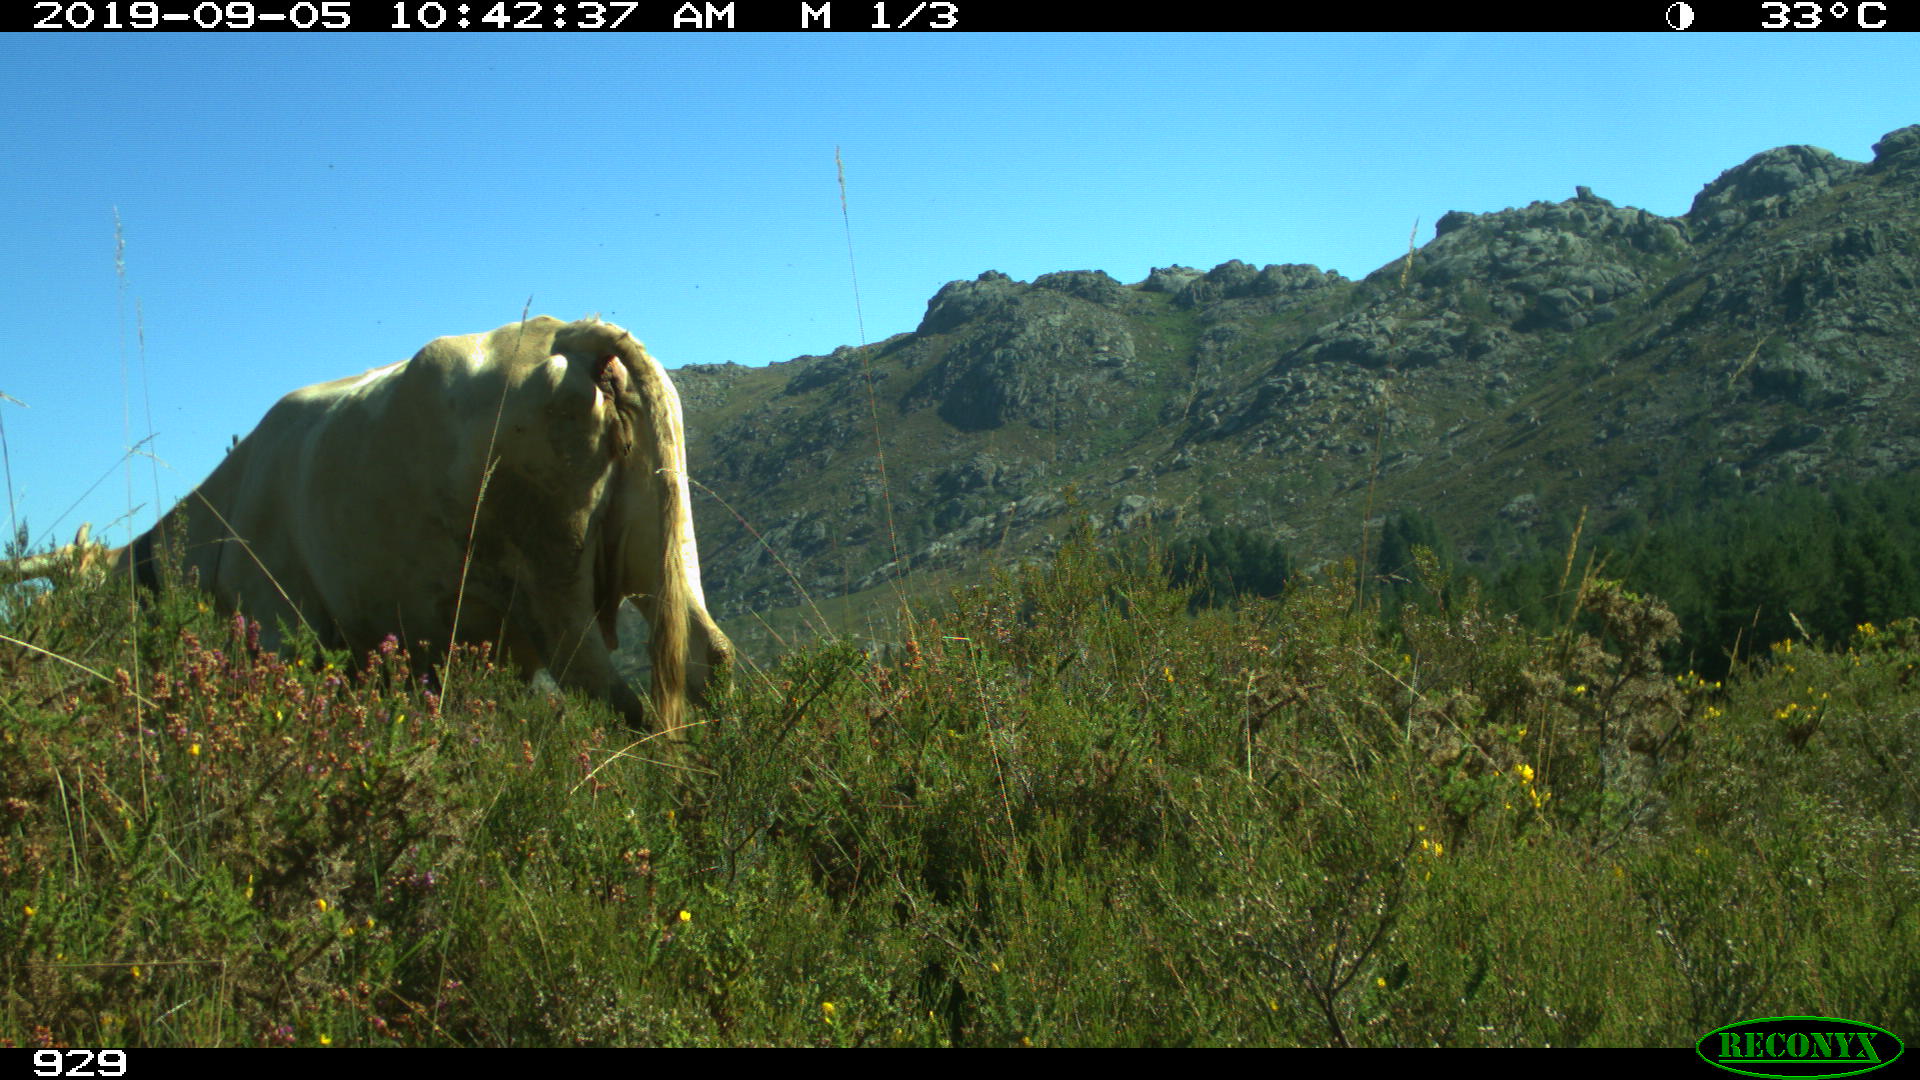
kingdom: Animalia
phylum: Chordata
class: Mammalia
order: Artiodactyla
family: Bovidae
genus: Bos
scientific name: Bos taurus
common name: Domesticated cattle
